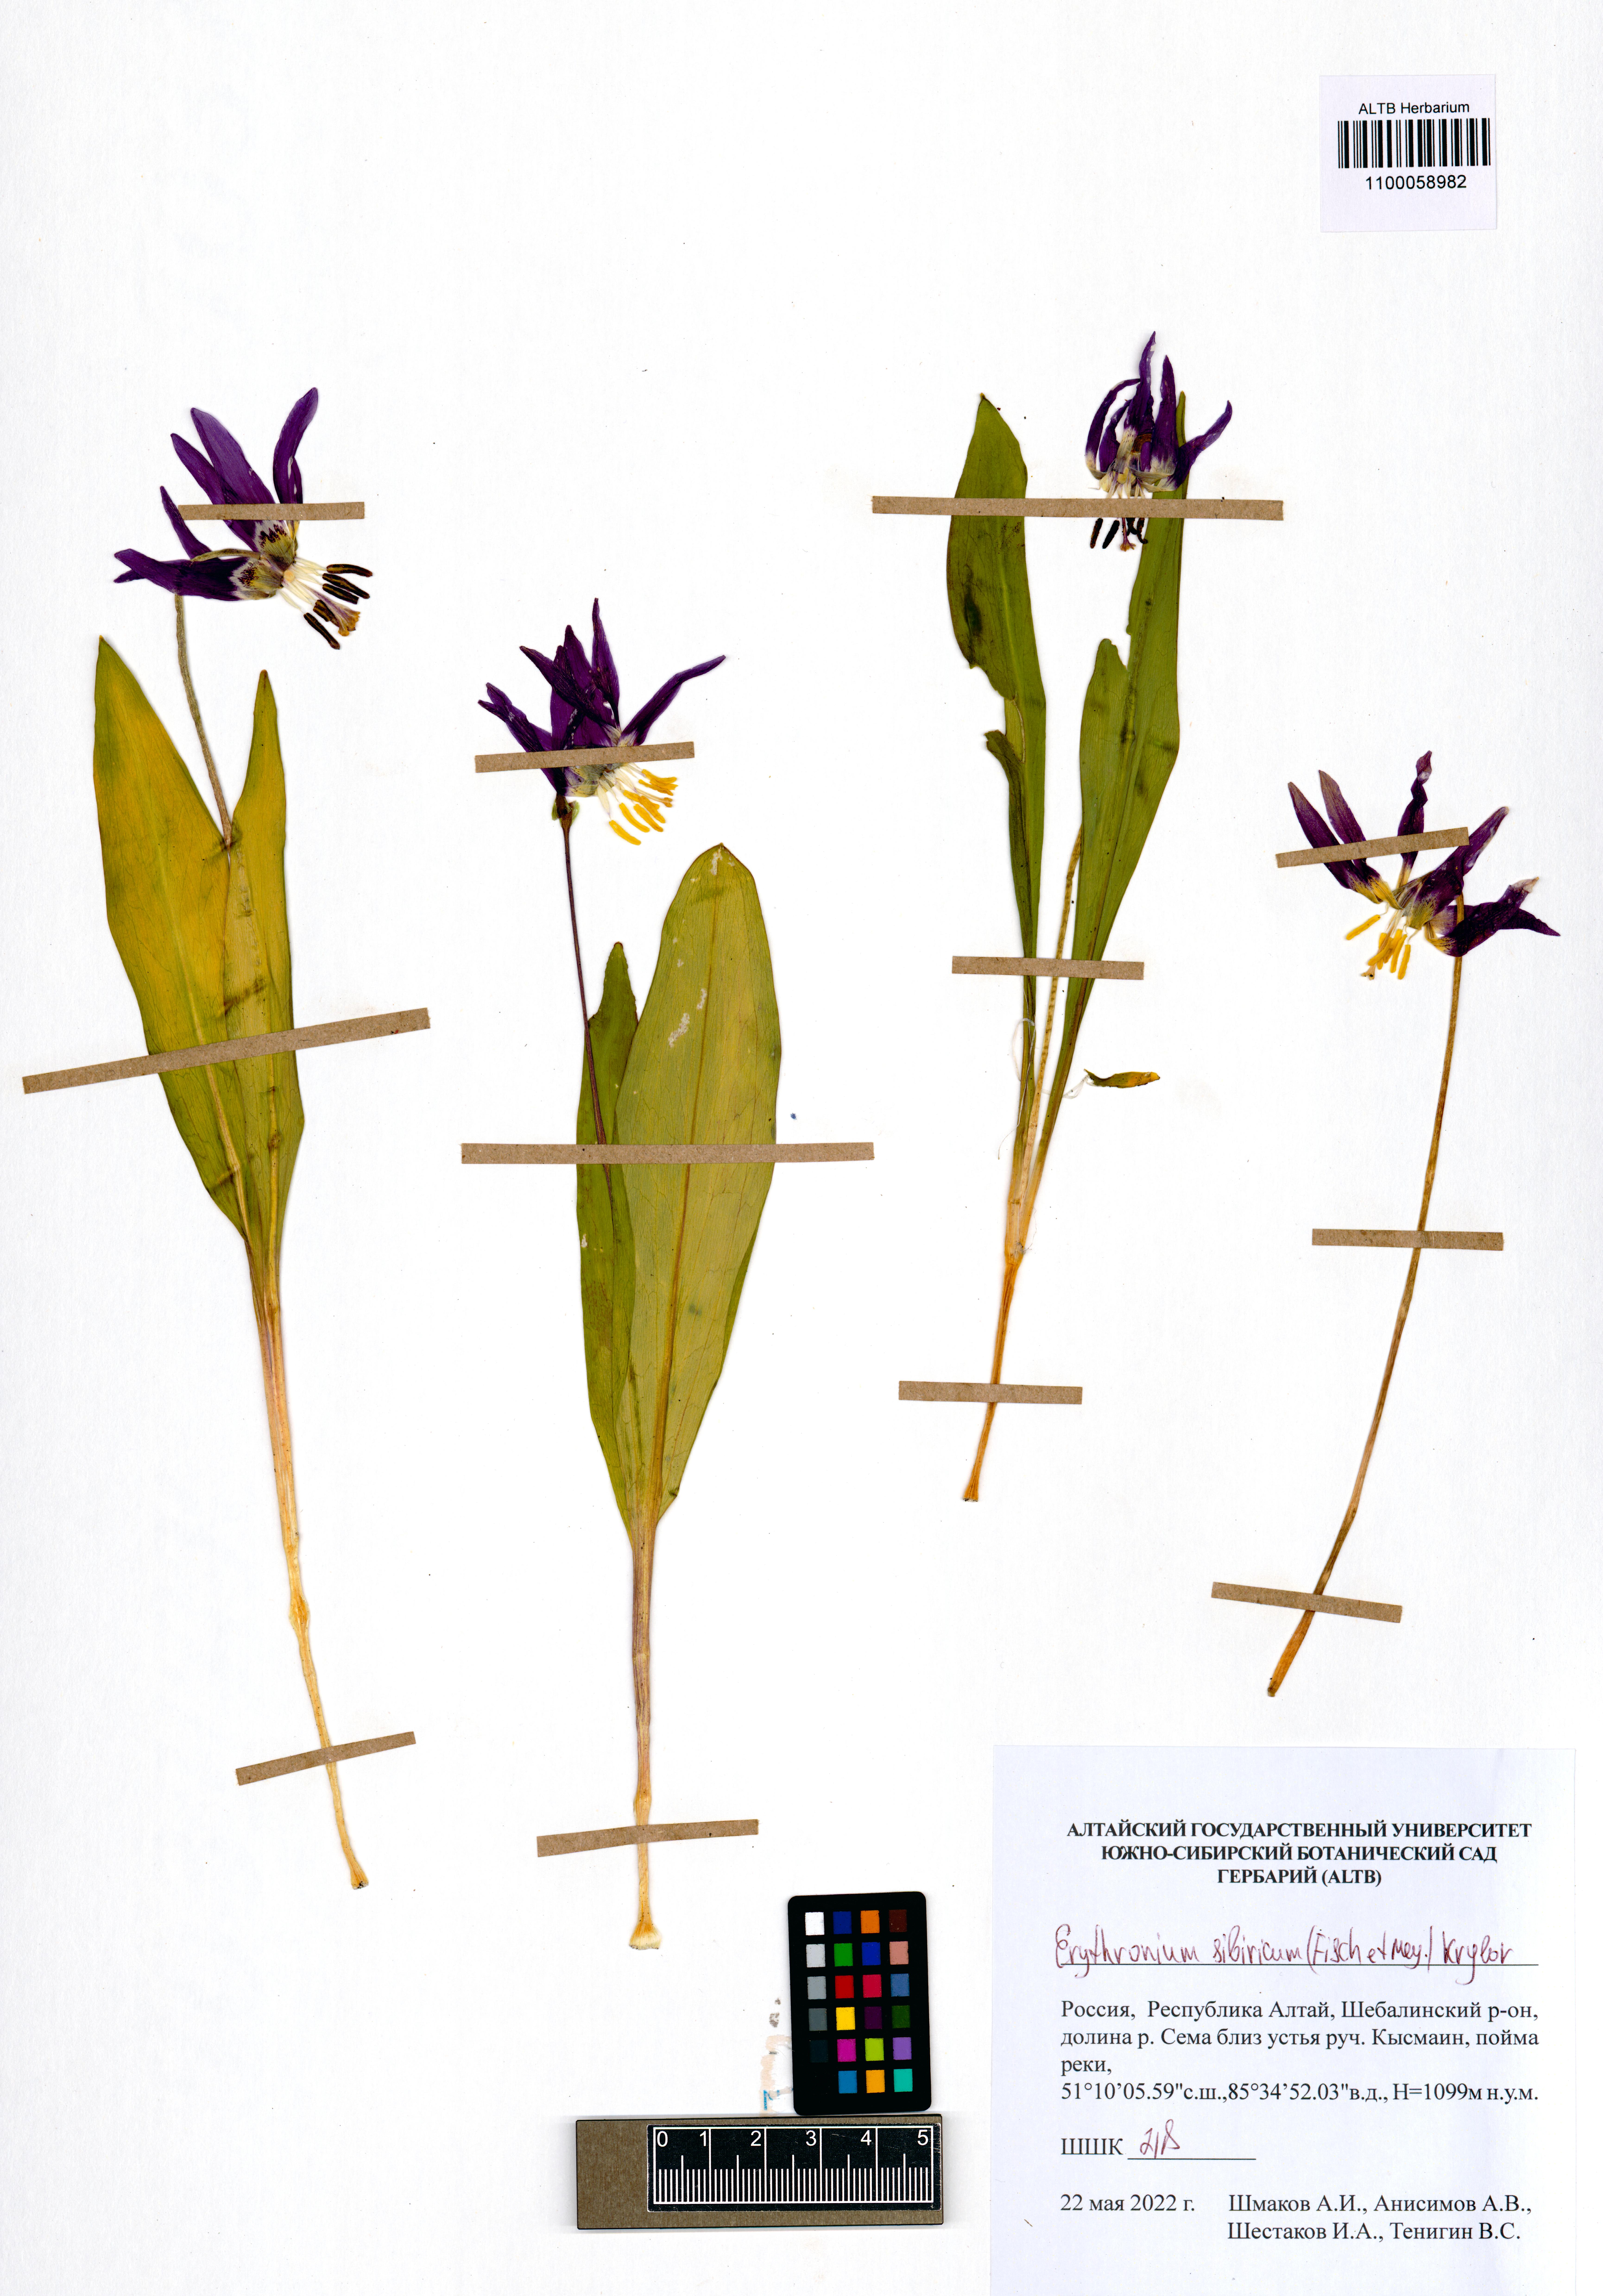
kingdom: Plantae
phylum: Tracheophyta
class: Liliopsida
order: Liliales
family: Liliaceae
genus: Erythronium
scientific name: Erythronium sibiricum
